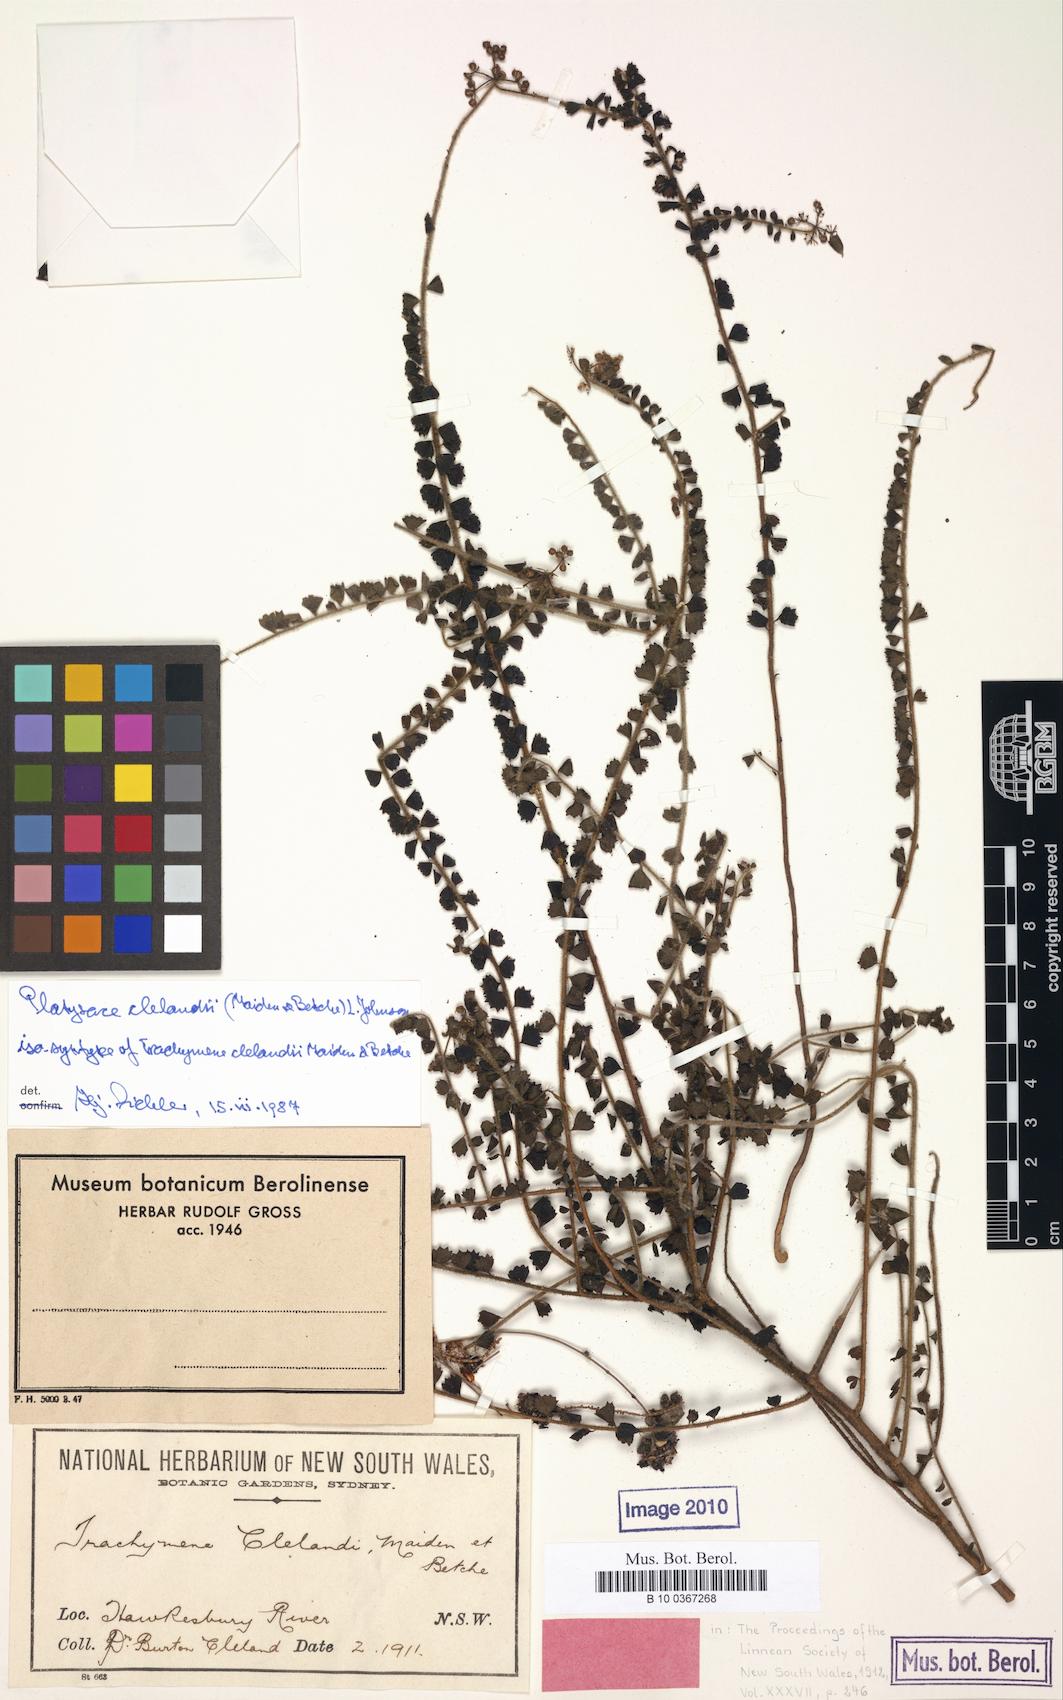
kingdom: Plantae
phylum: Tracheophyta
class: Magnoliopsida
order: Apiales
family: Apiaceae
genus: Platysace
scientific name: Platysace clelandii
